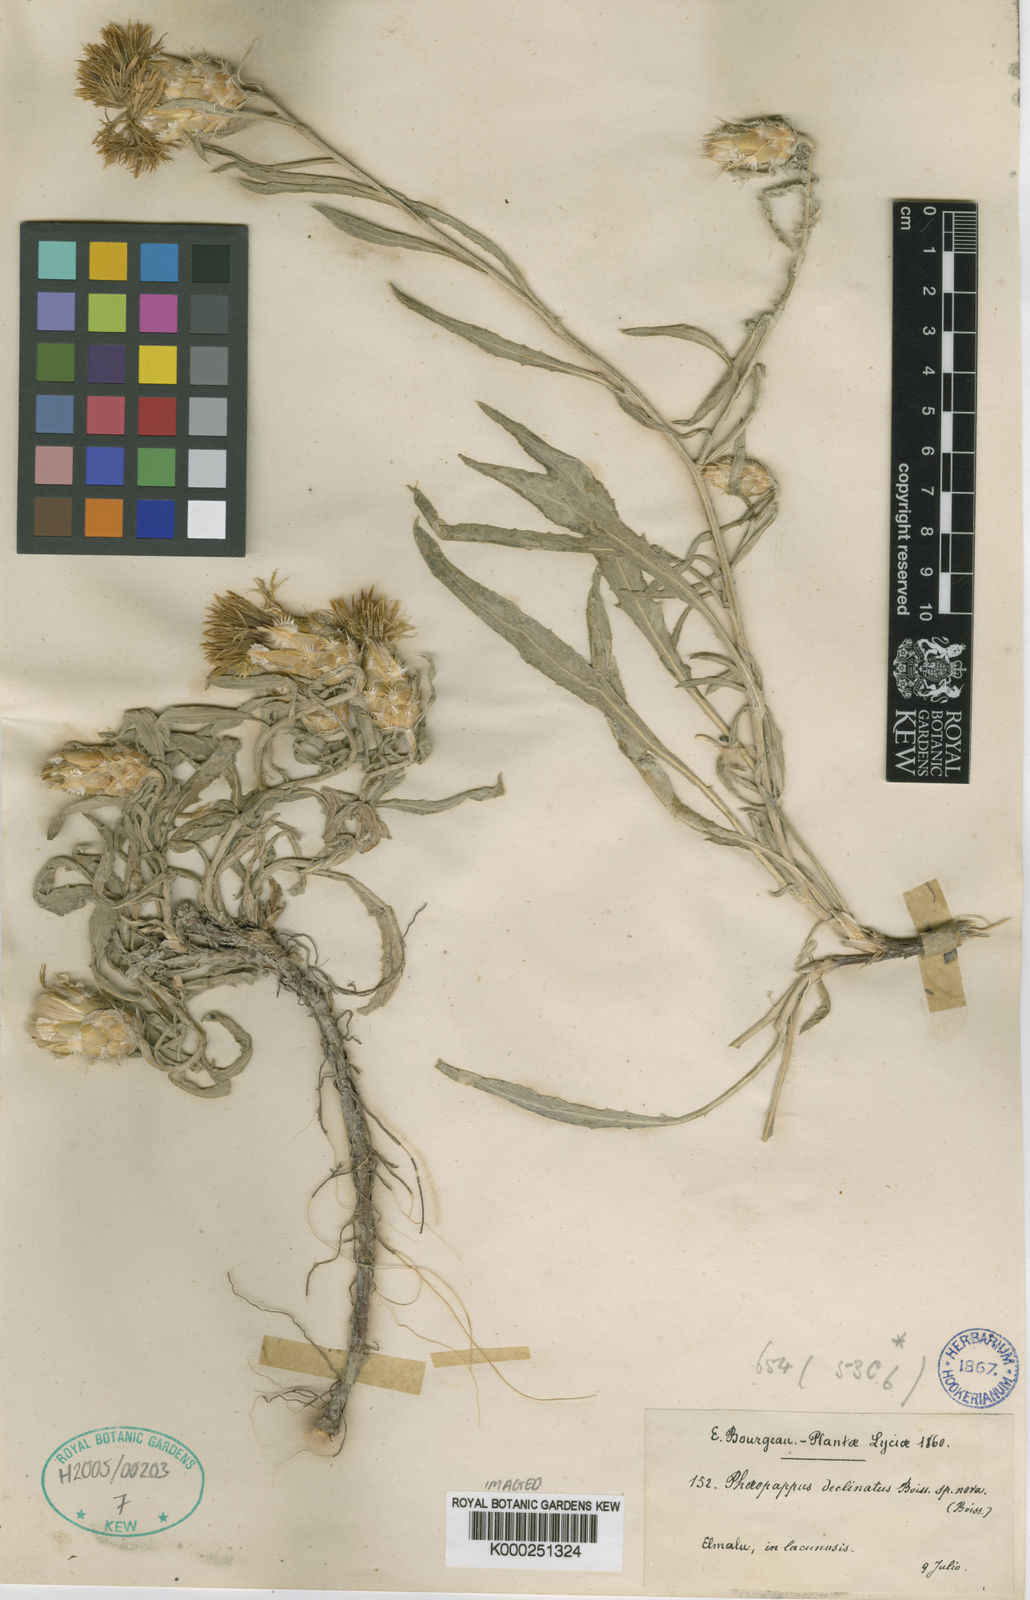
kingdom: Plantae
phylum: Tracheophyta
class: Magnoliopsida
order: Asterales
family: Asteraceae
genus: Centaurea
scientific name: Centaurea deflexa
